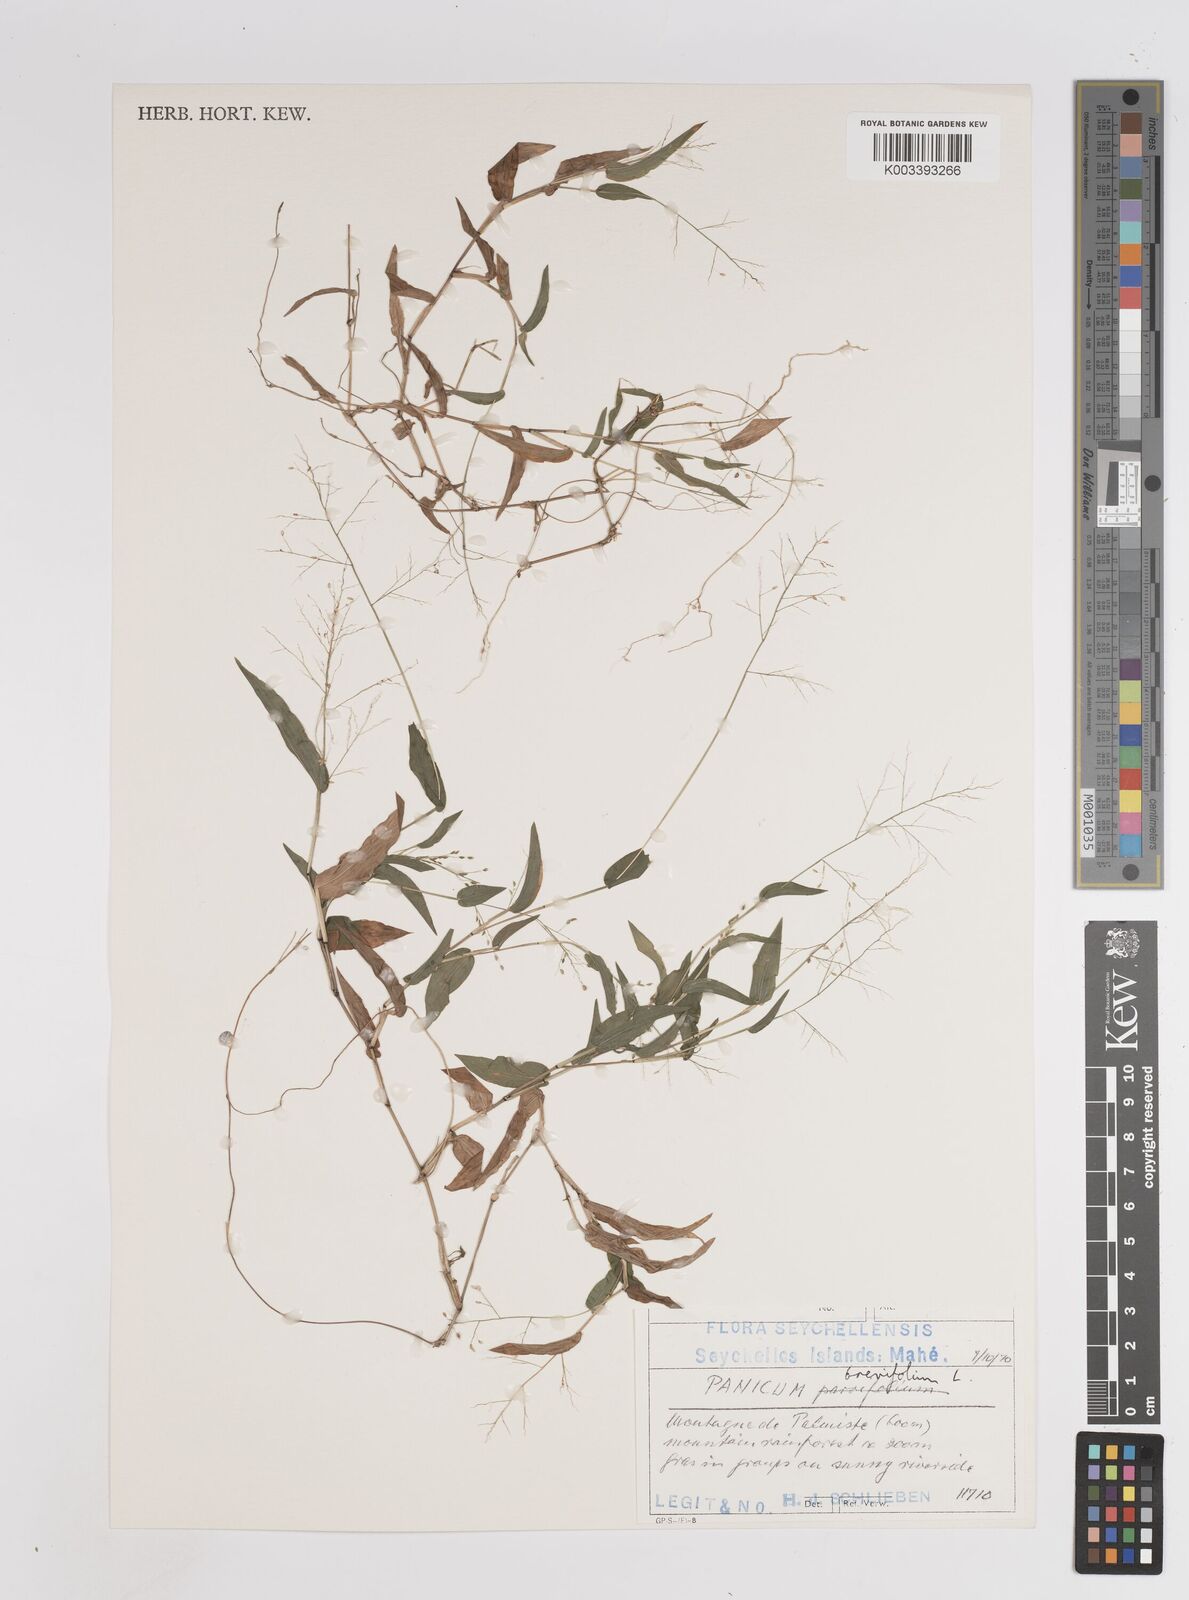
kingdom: Plantae
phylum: Tracheophyta
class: Liliopsida
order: Poales
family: Poaceae
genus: Panicum
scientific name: Panicum brevifolium
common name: Shortleaf panic grass
